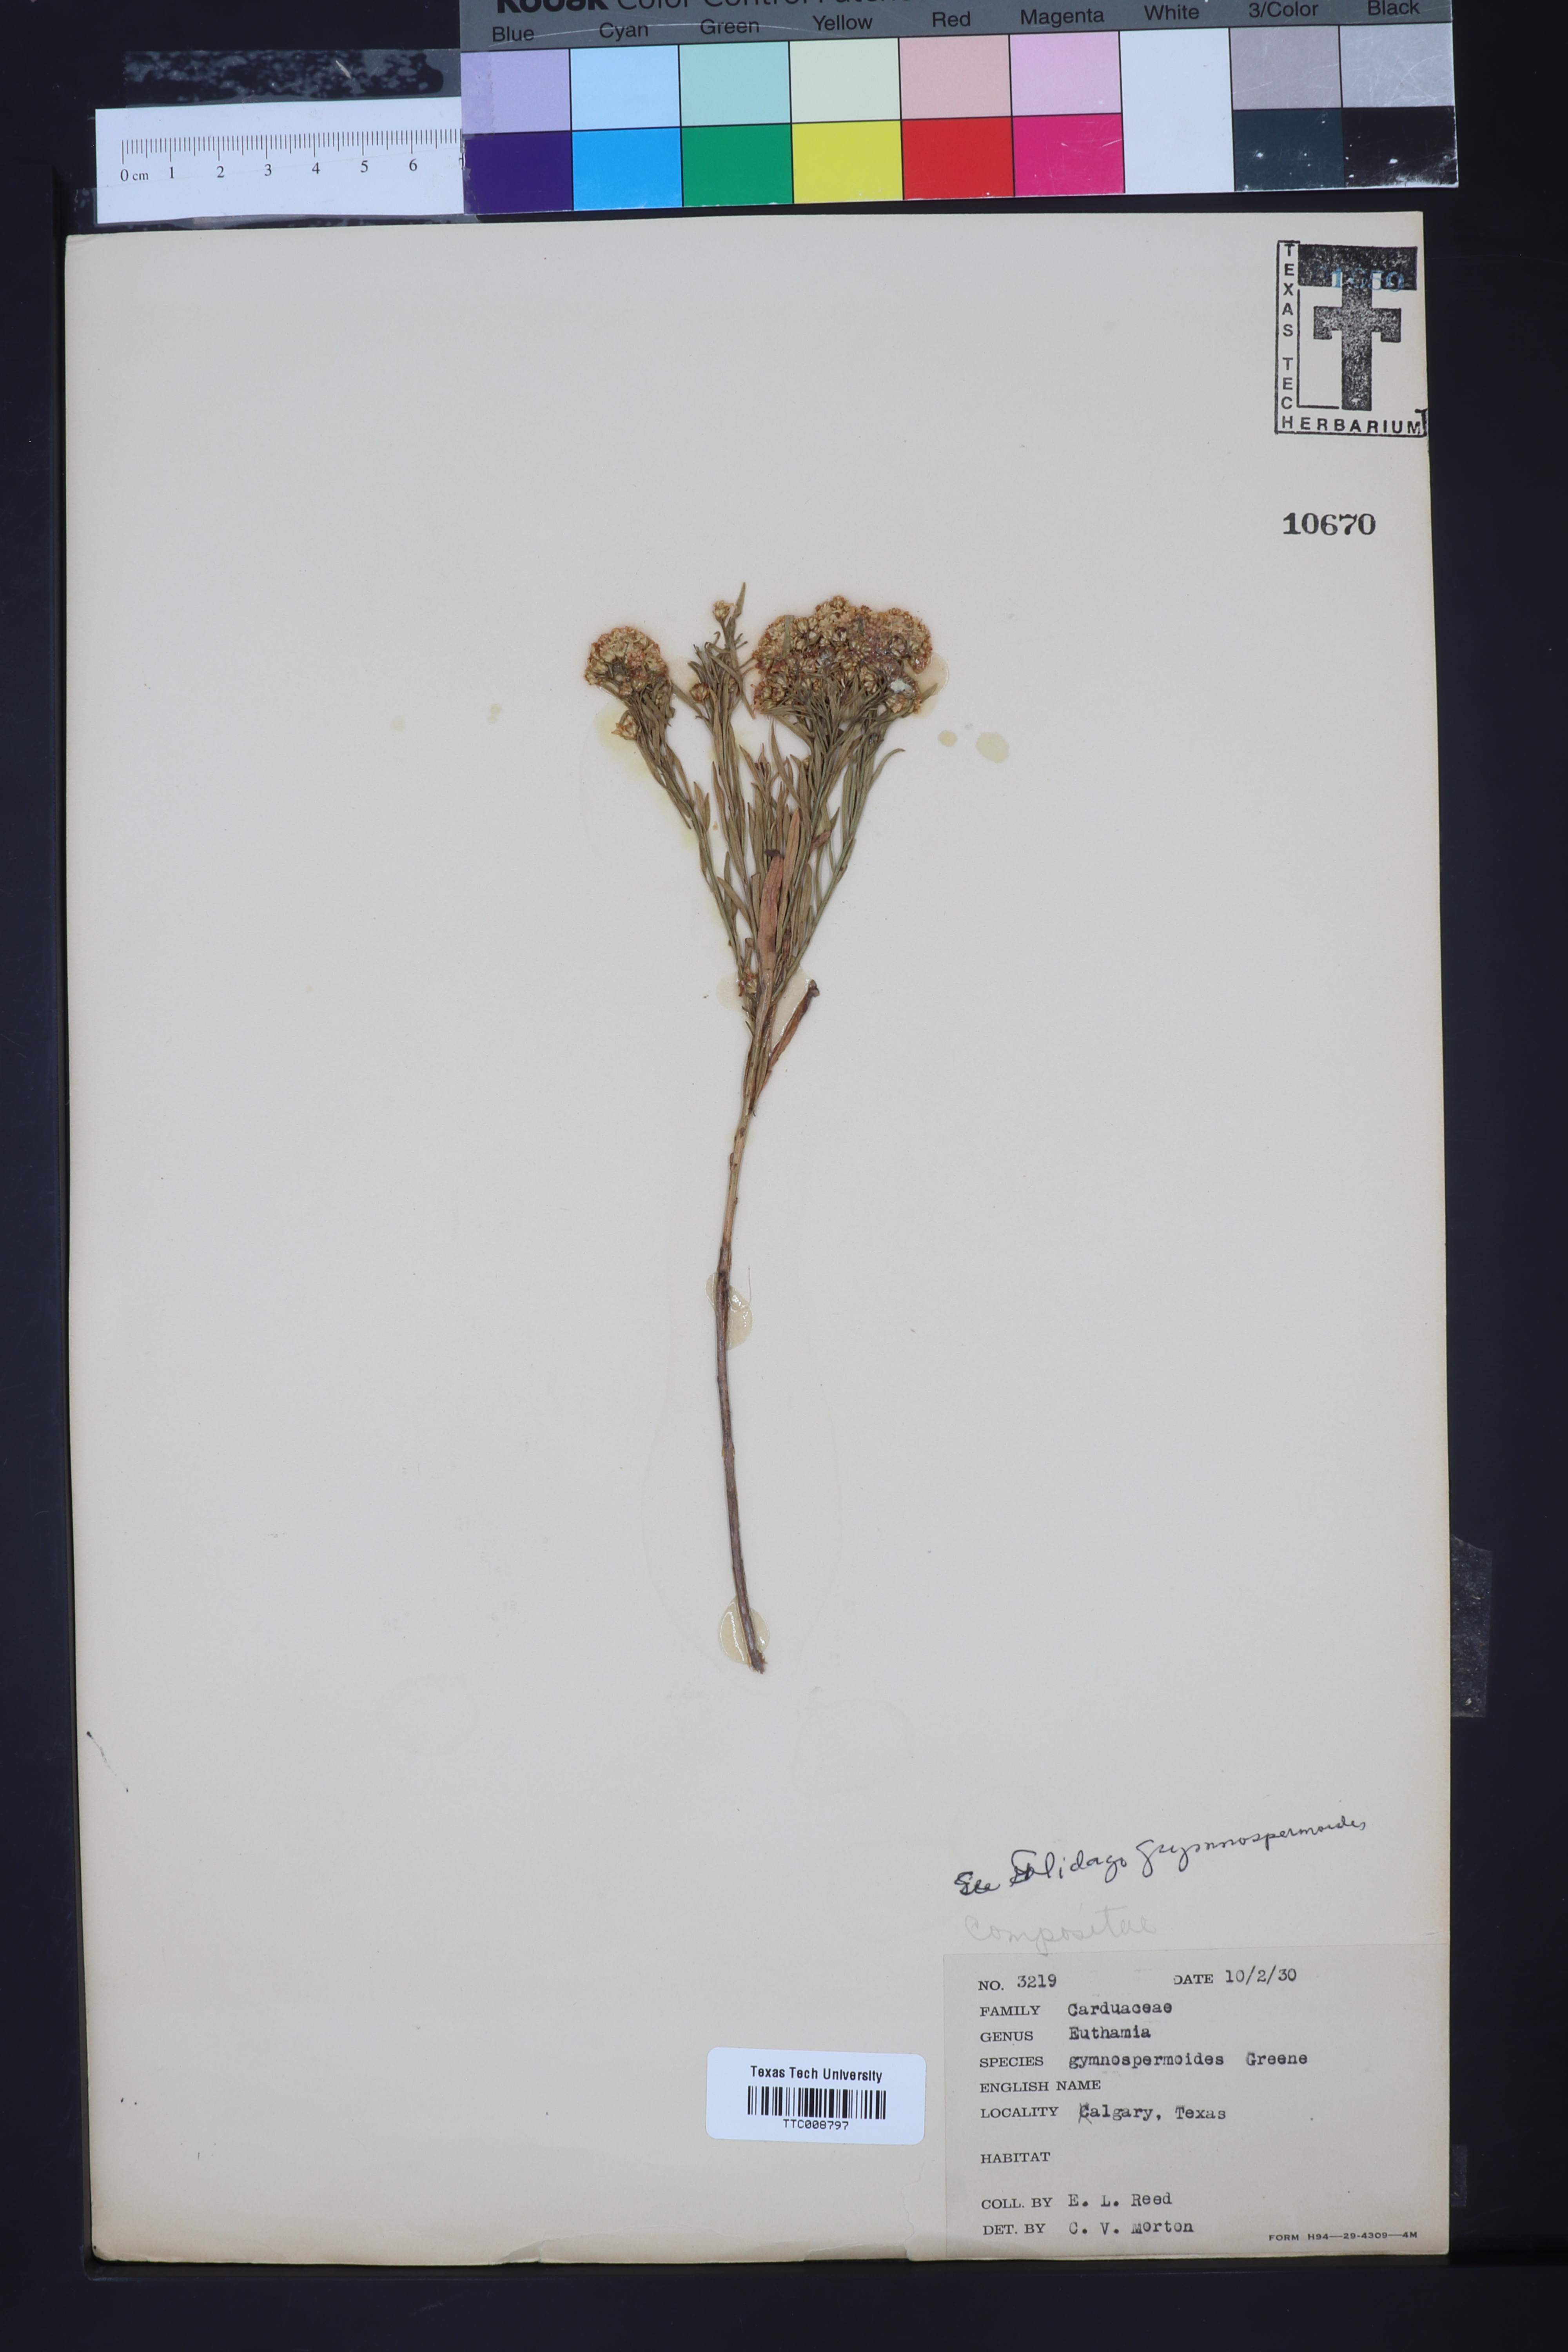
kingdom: Plantae
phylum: Tracheophyta
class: Magnoliopsida
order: Asterales
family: Asteraceae
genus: Euthamia
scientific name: Euthamia gymnospermoides
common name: Great plains goldentop
